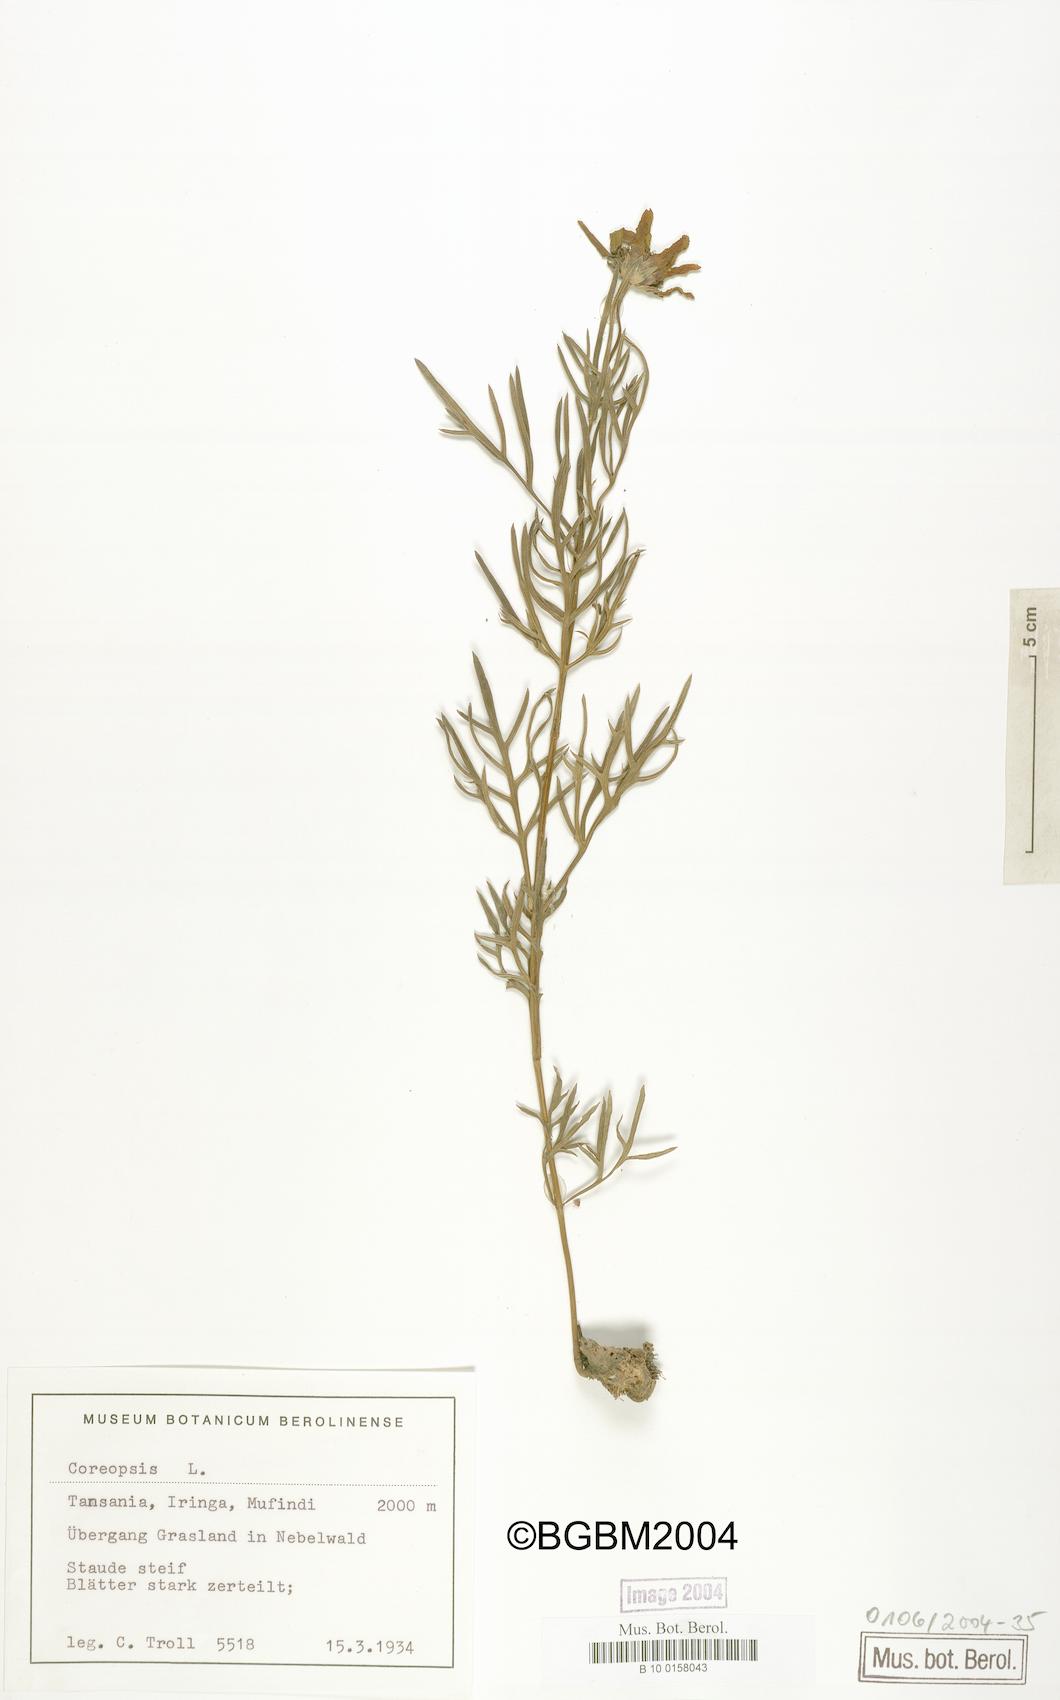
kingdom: Plantae
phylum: Tracheophyta
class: Magnoliopsida
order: Asterales
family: Asteraceae
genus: Coreopsis
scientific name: Coreopsis
